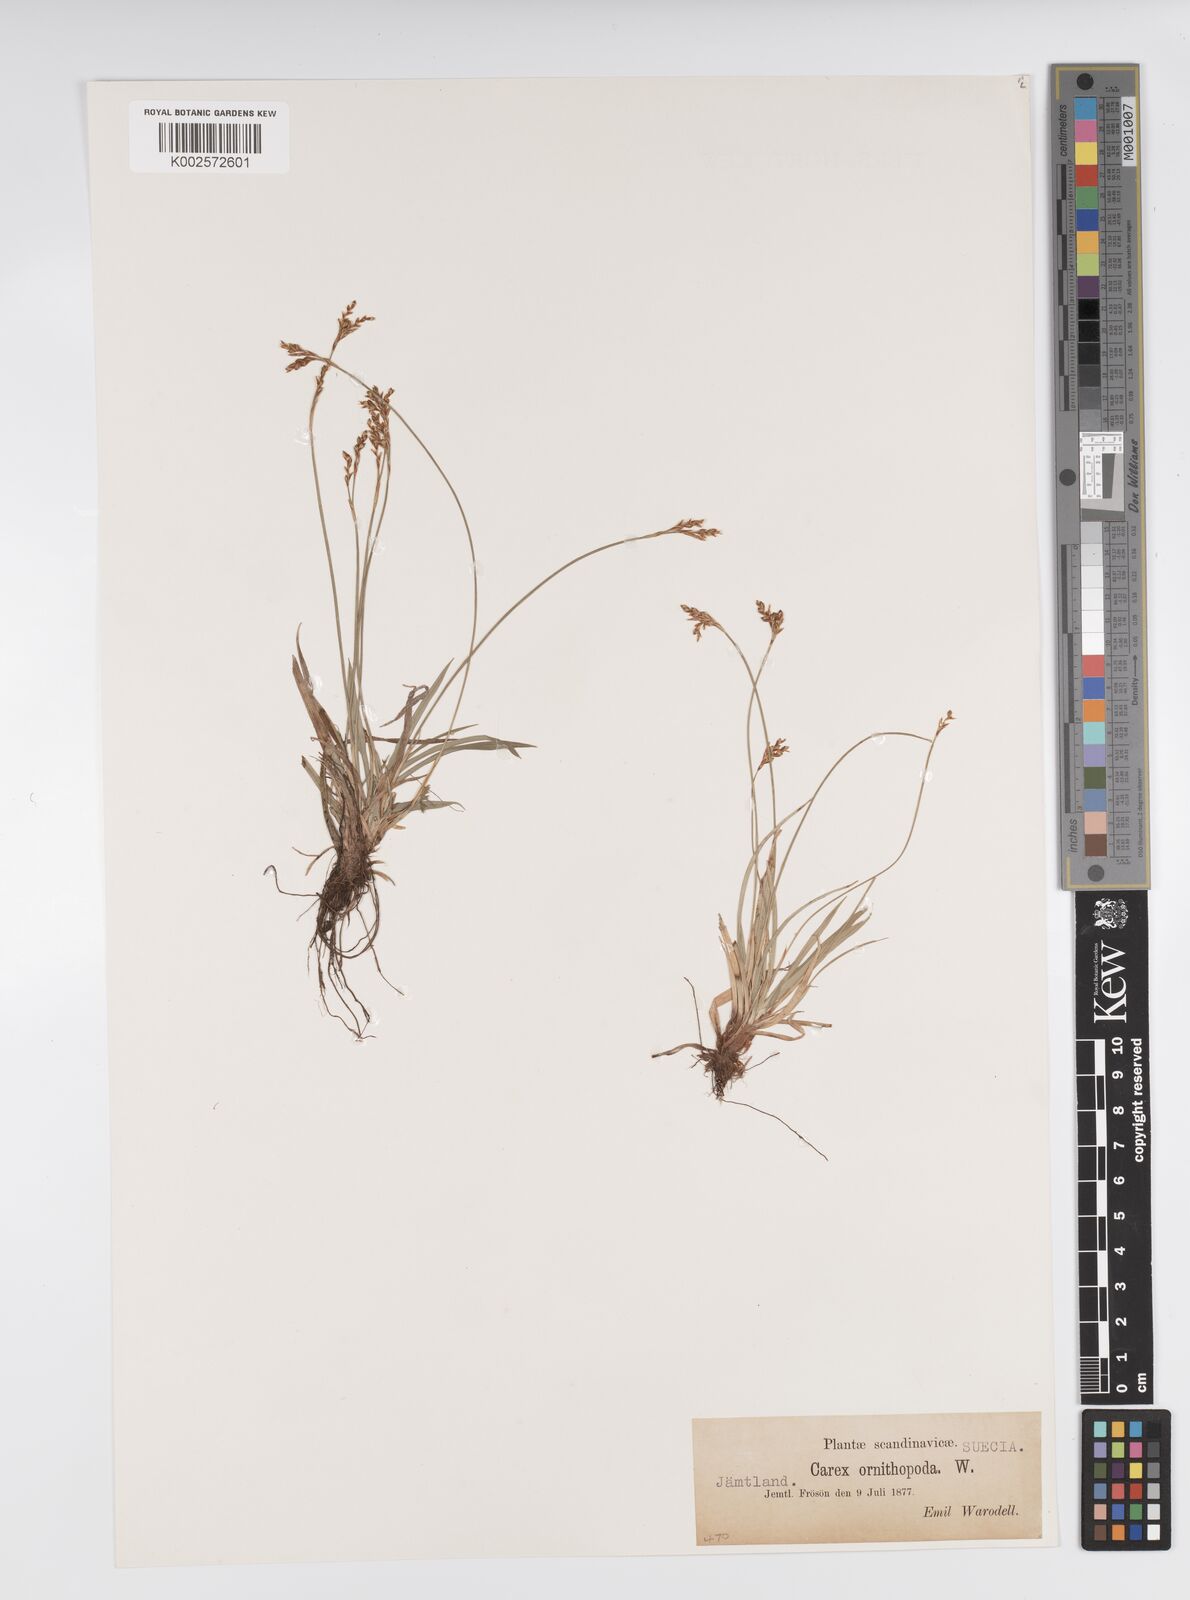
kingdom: Plantae
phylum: Tracheophyta
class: Liliopsida
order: Poales
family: Cyperaceae
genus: Carex
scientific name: Carex ornithopoda
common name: Bird's-foot sedge
